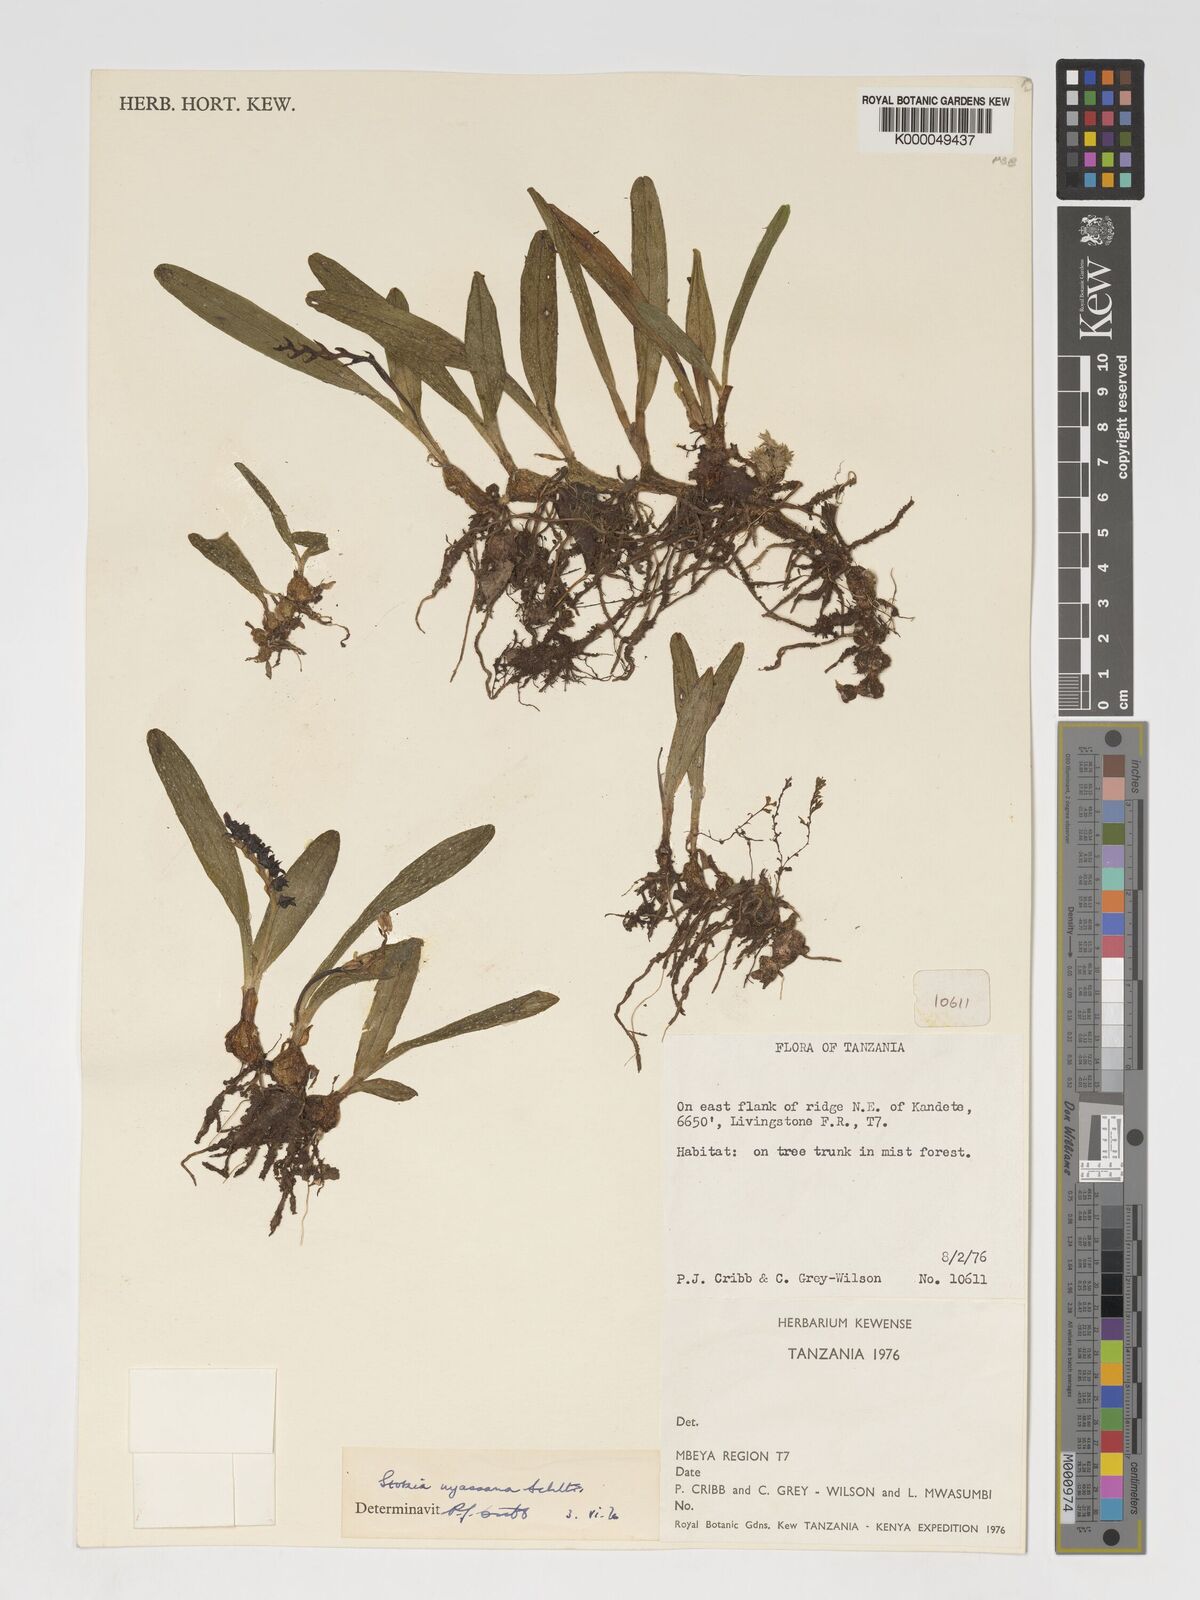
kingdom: Plantae
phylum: Tracheophyta
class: Liliopsida
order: Asparagales
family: Orchidaceae
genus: Porpax
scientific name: Porpax nyassana
